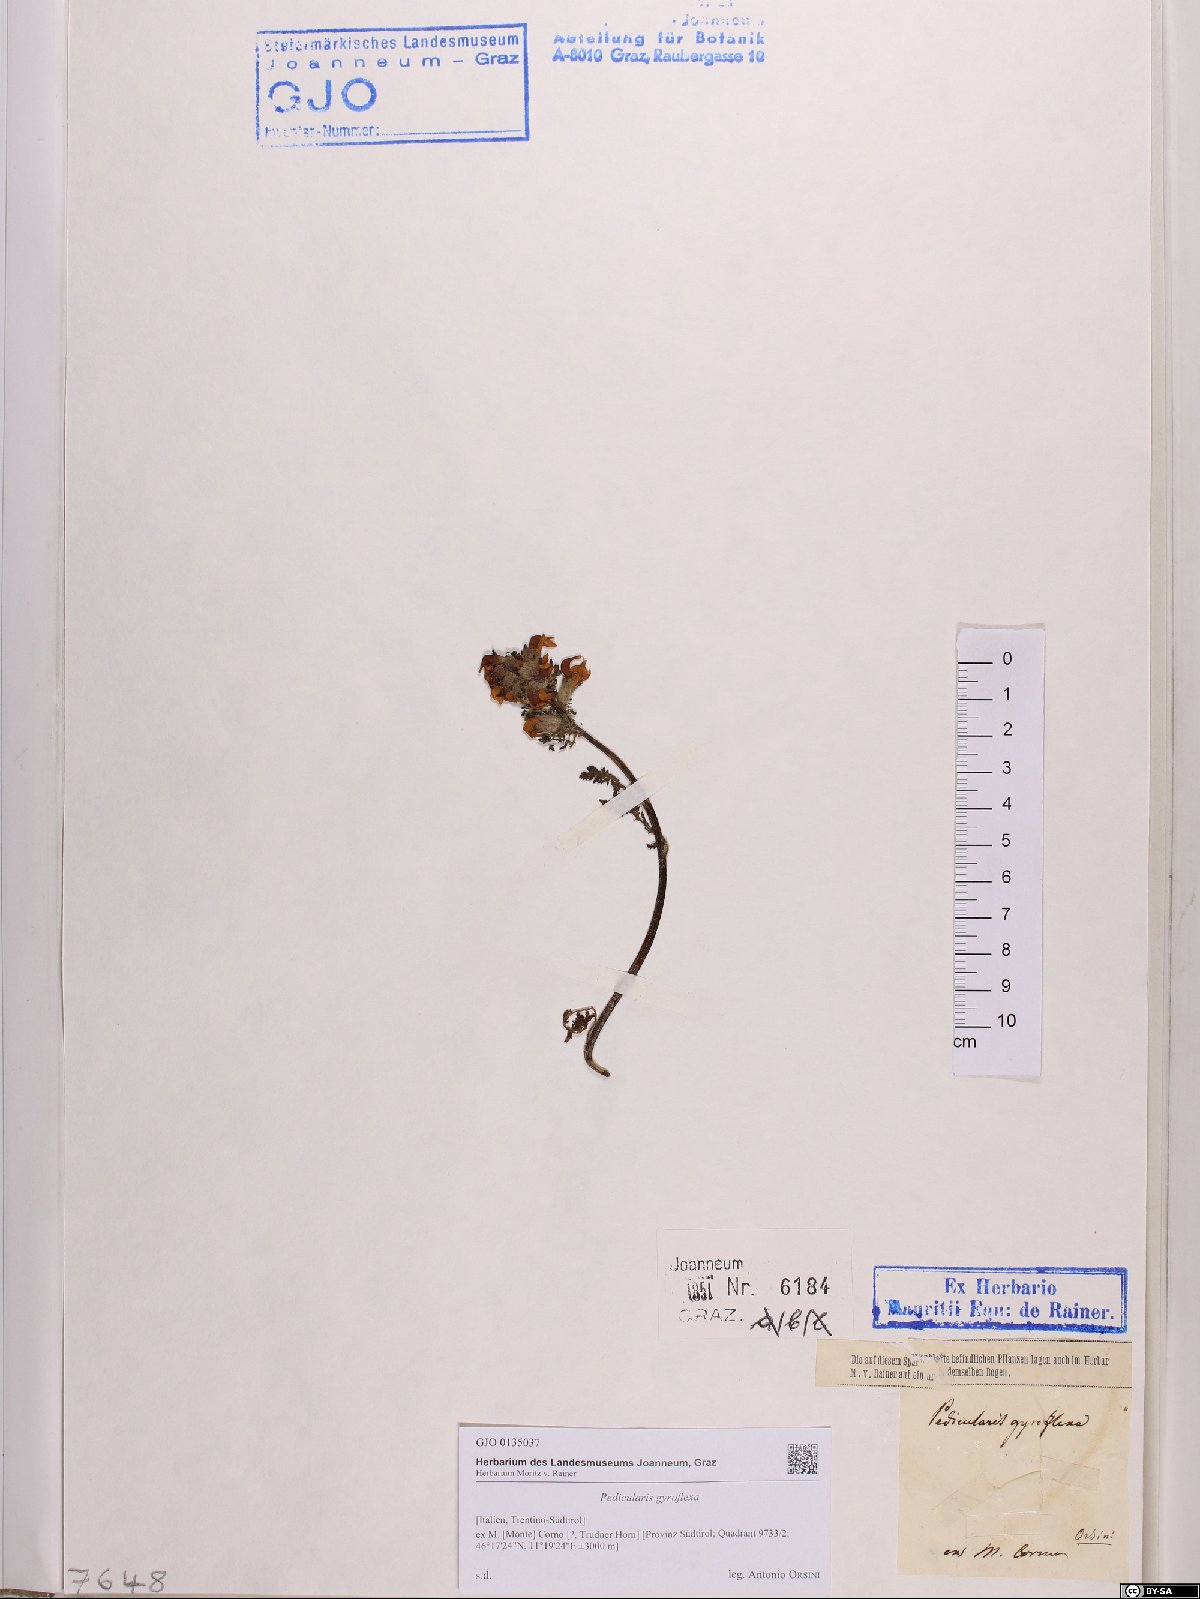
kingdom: Plantae
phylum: Tracheophyta
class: Magnoliopsida
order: Lamiales
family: Orobanchaceae
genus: Pedicularis
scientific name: Pedicularis gyroflexa
